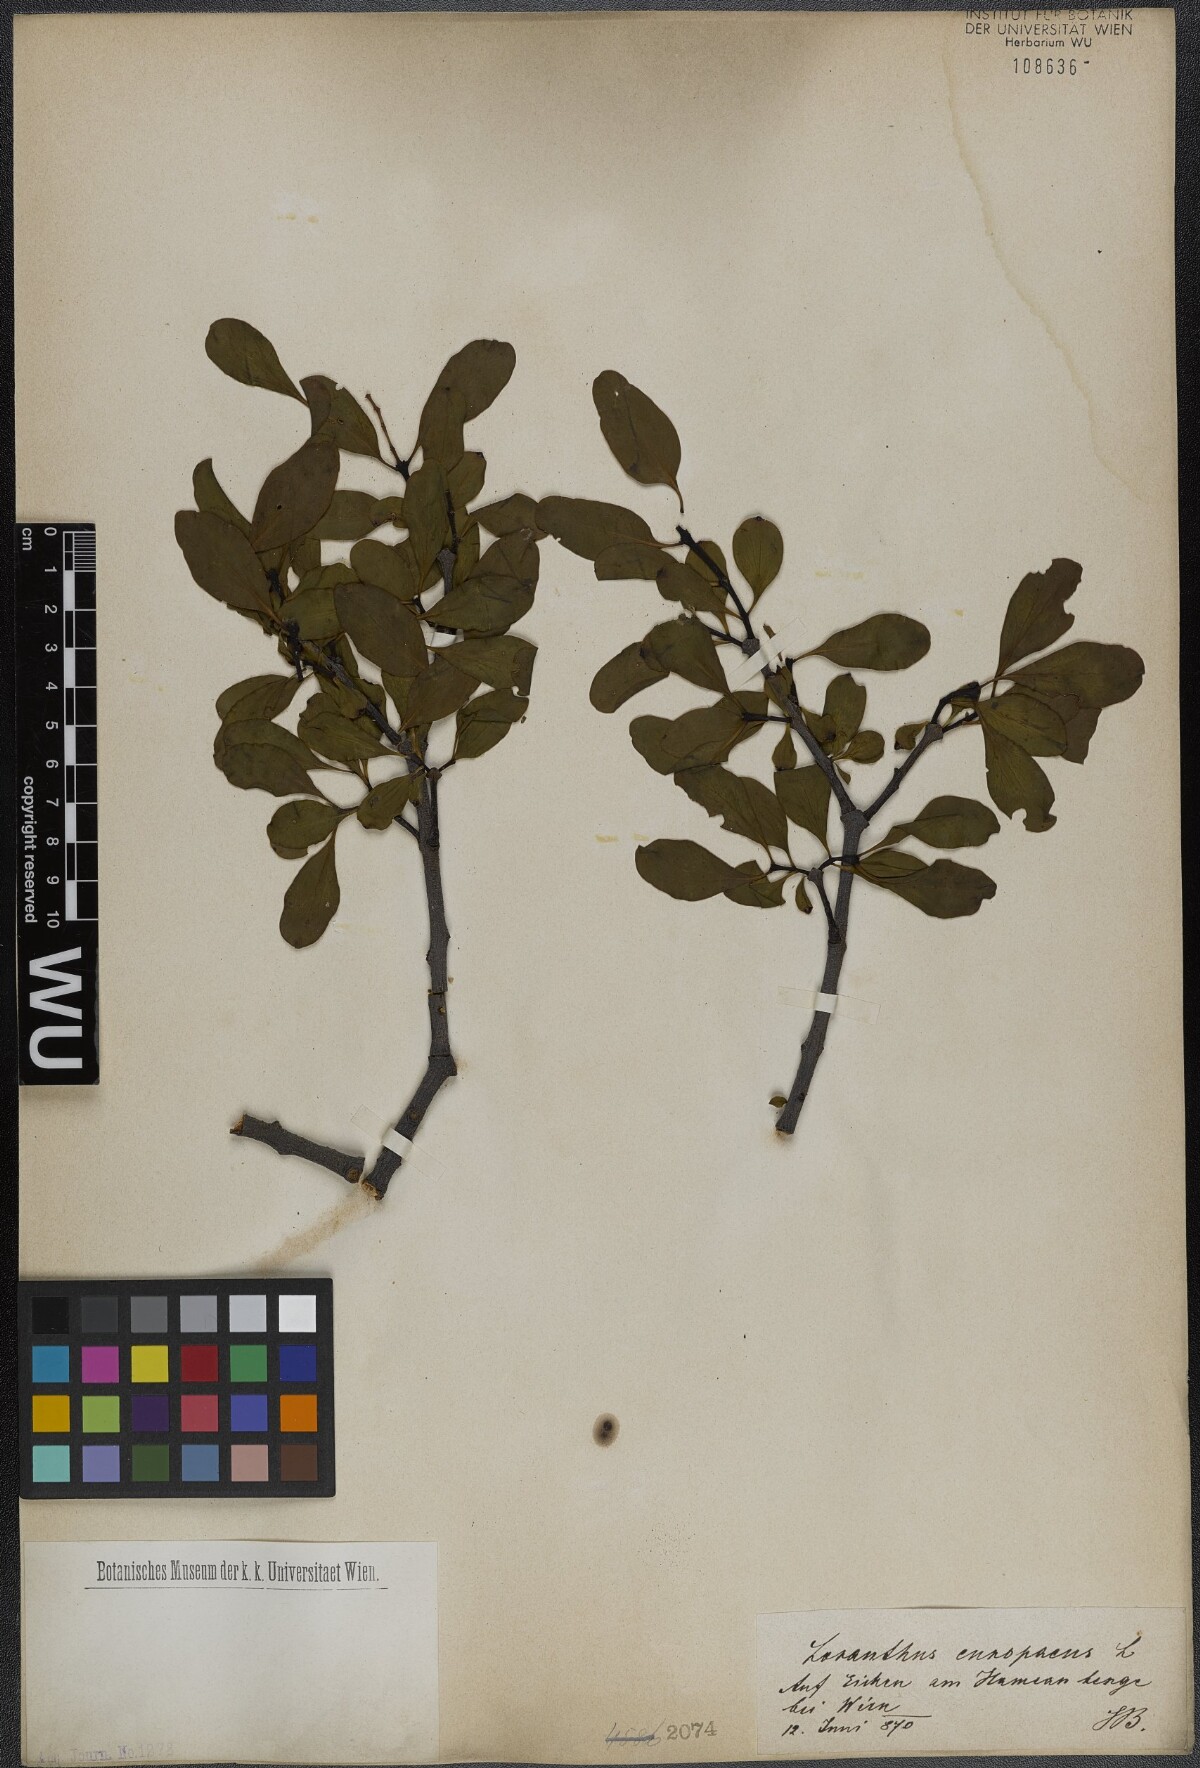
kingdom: Plantae
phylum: Tracheophyta
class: Magnoliopsida
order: Santalales
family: Loranthaceae
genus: Loranthus
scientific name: Loranthus europaeus
